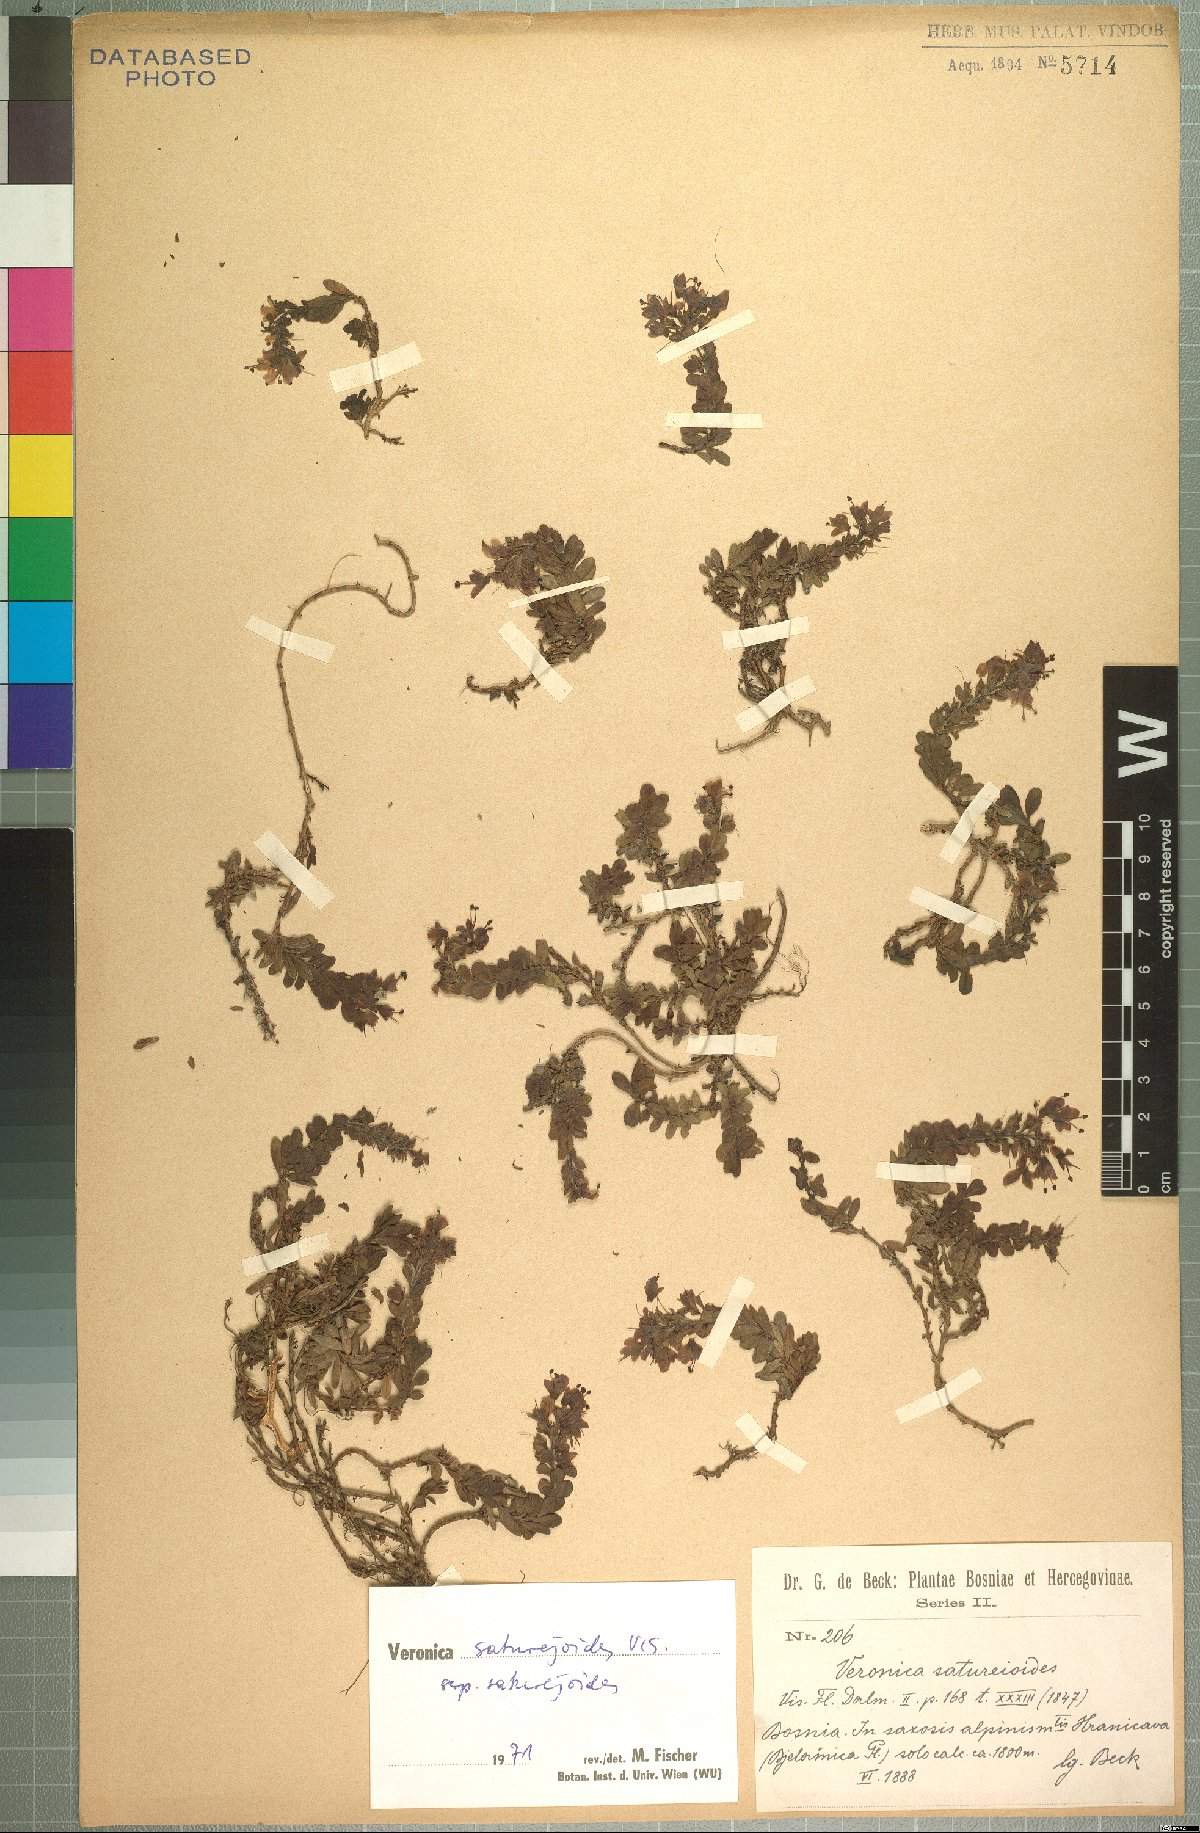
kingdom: Plantae
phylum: Tracheophyta
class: Magnoliopsida
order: Lamiales
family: Plantaginaceae
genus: Veronica
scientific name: Veronica saturejoides
